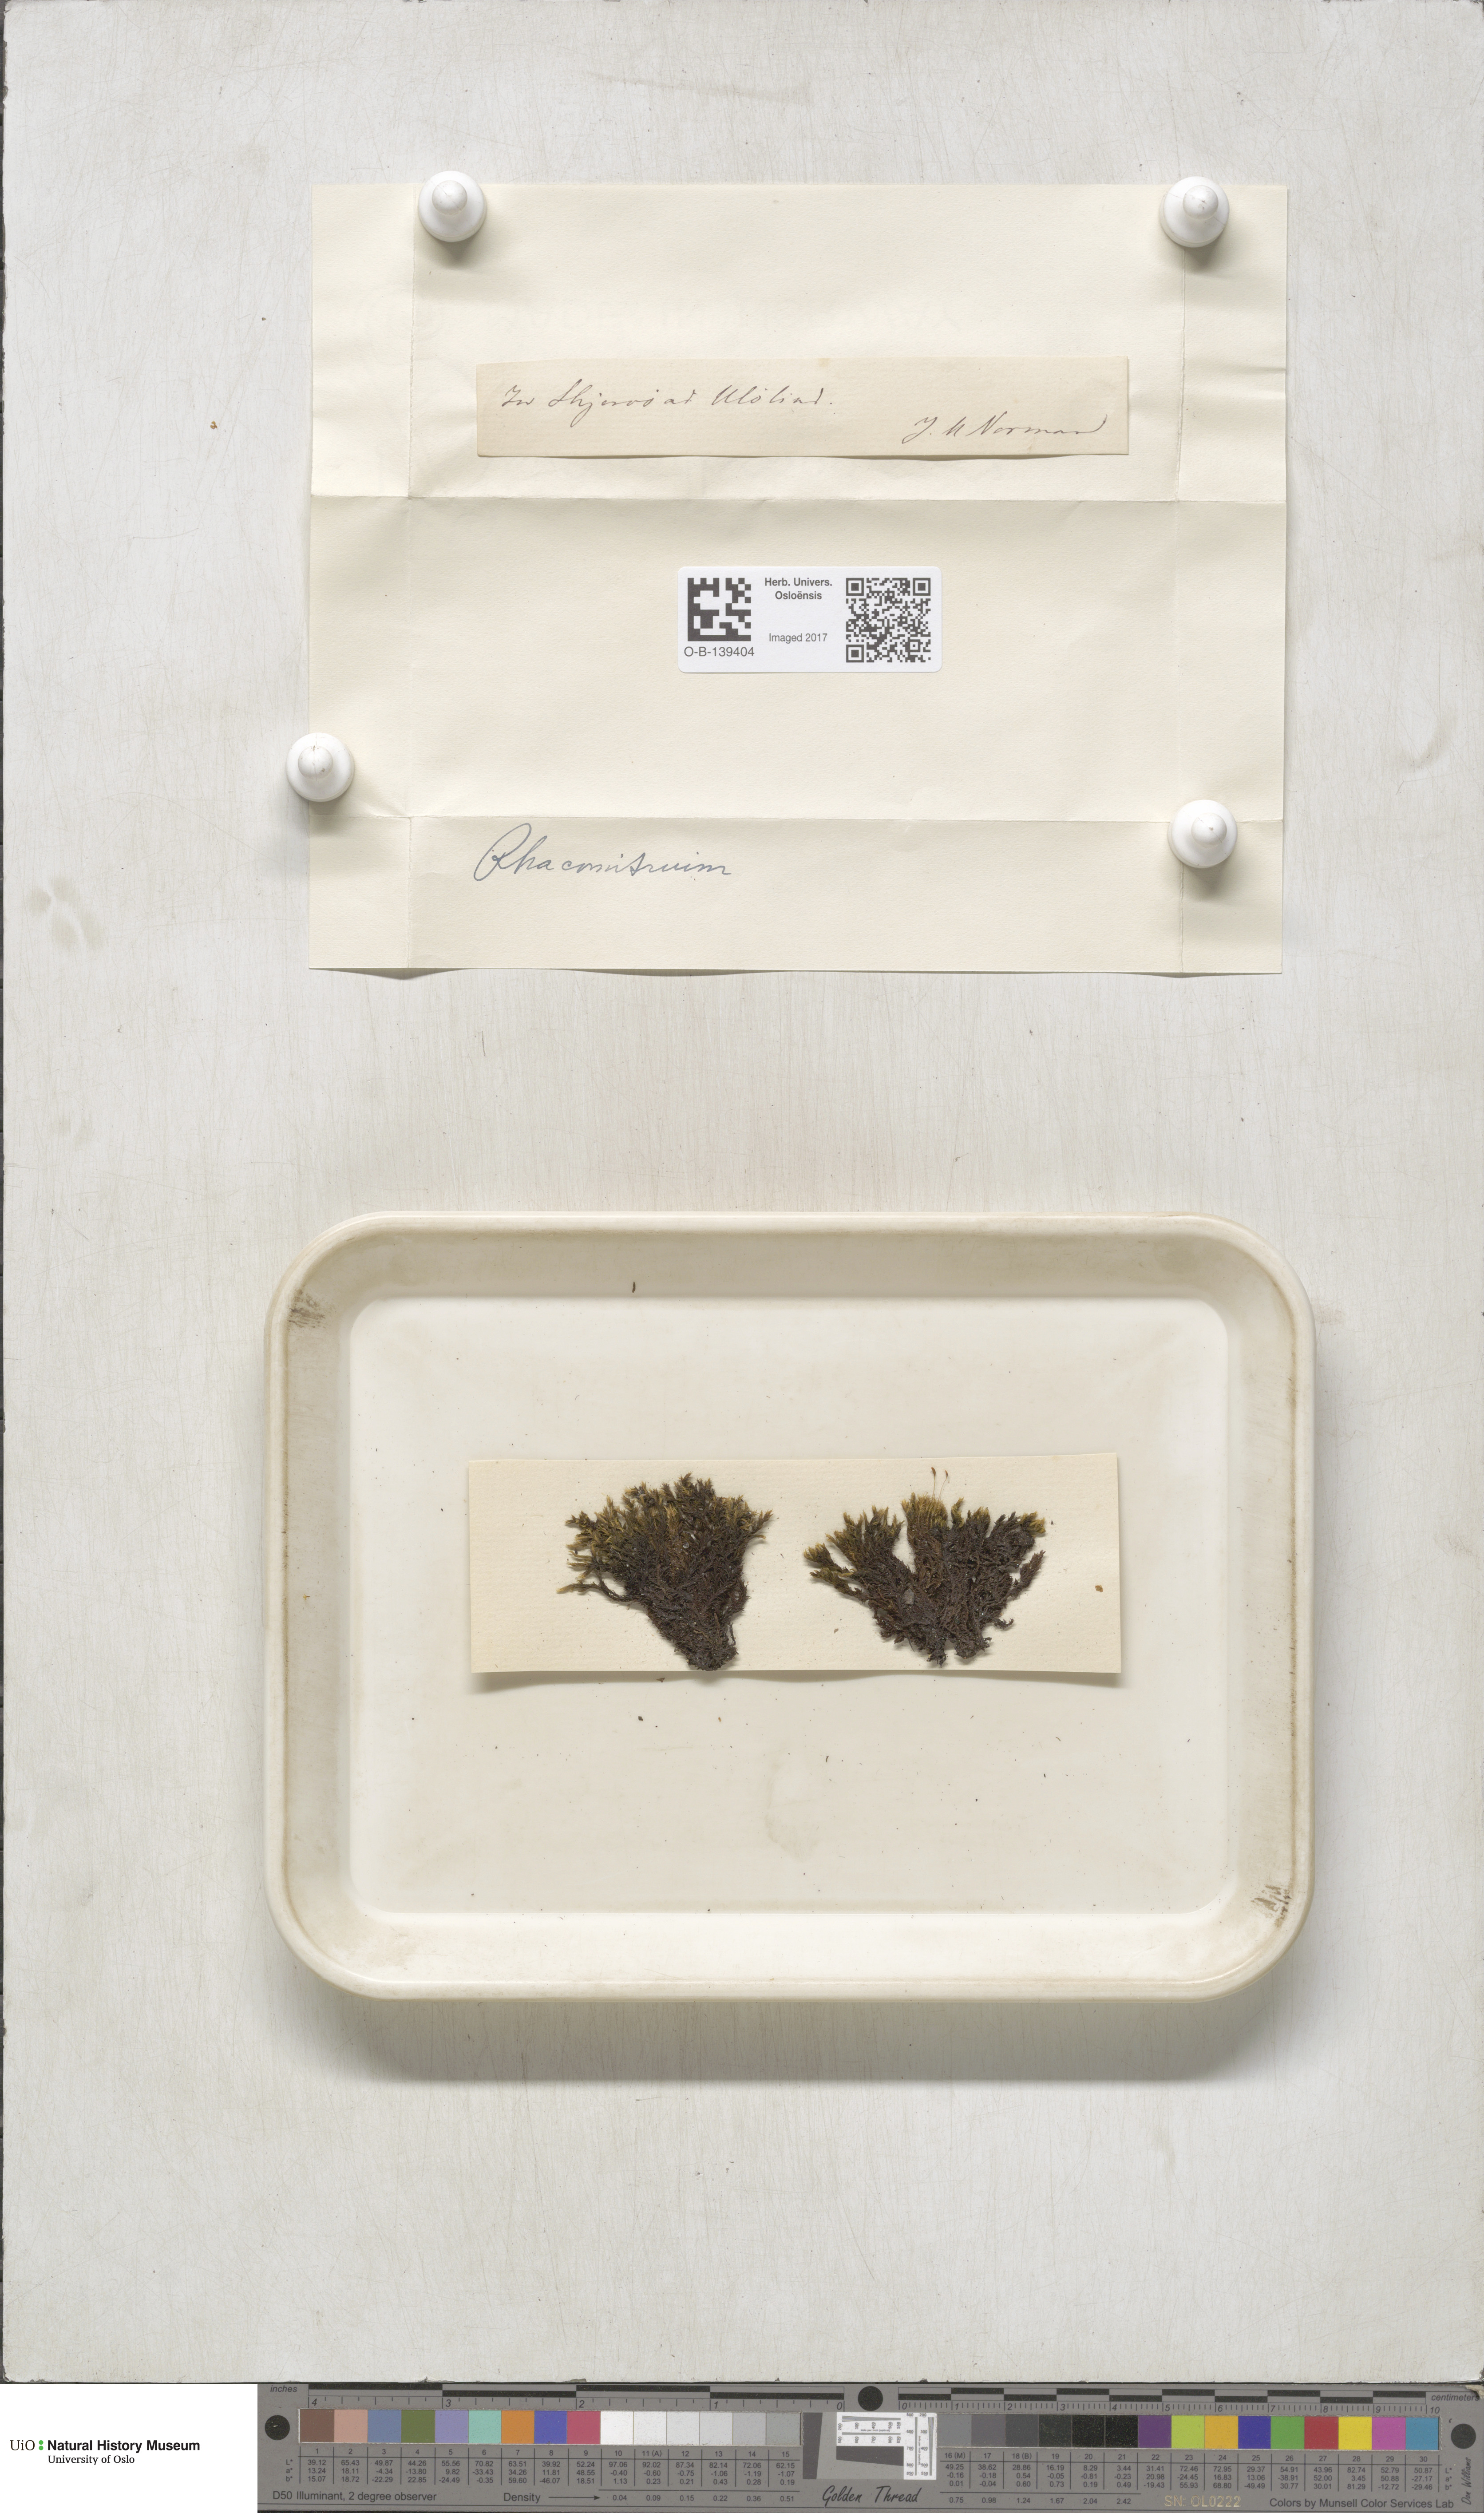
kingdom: Plantae
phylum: Bryophyta
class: Bryopsida
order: Grimmiales
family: Grimmiaceae
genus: Racomitrium
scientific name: Racomitrium
